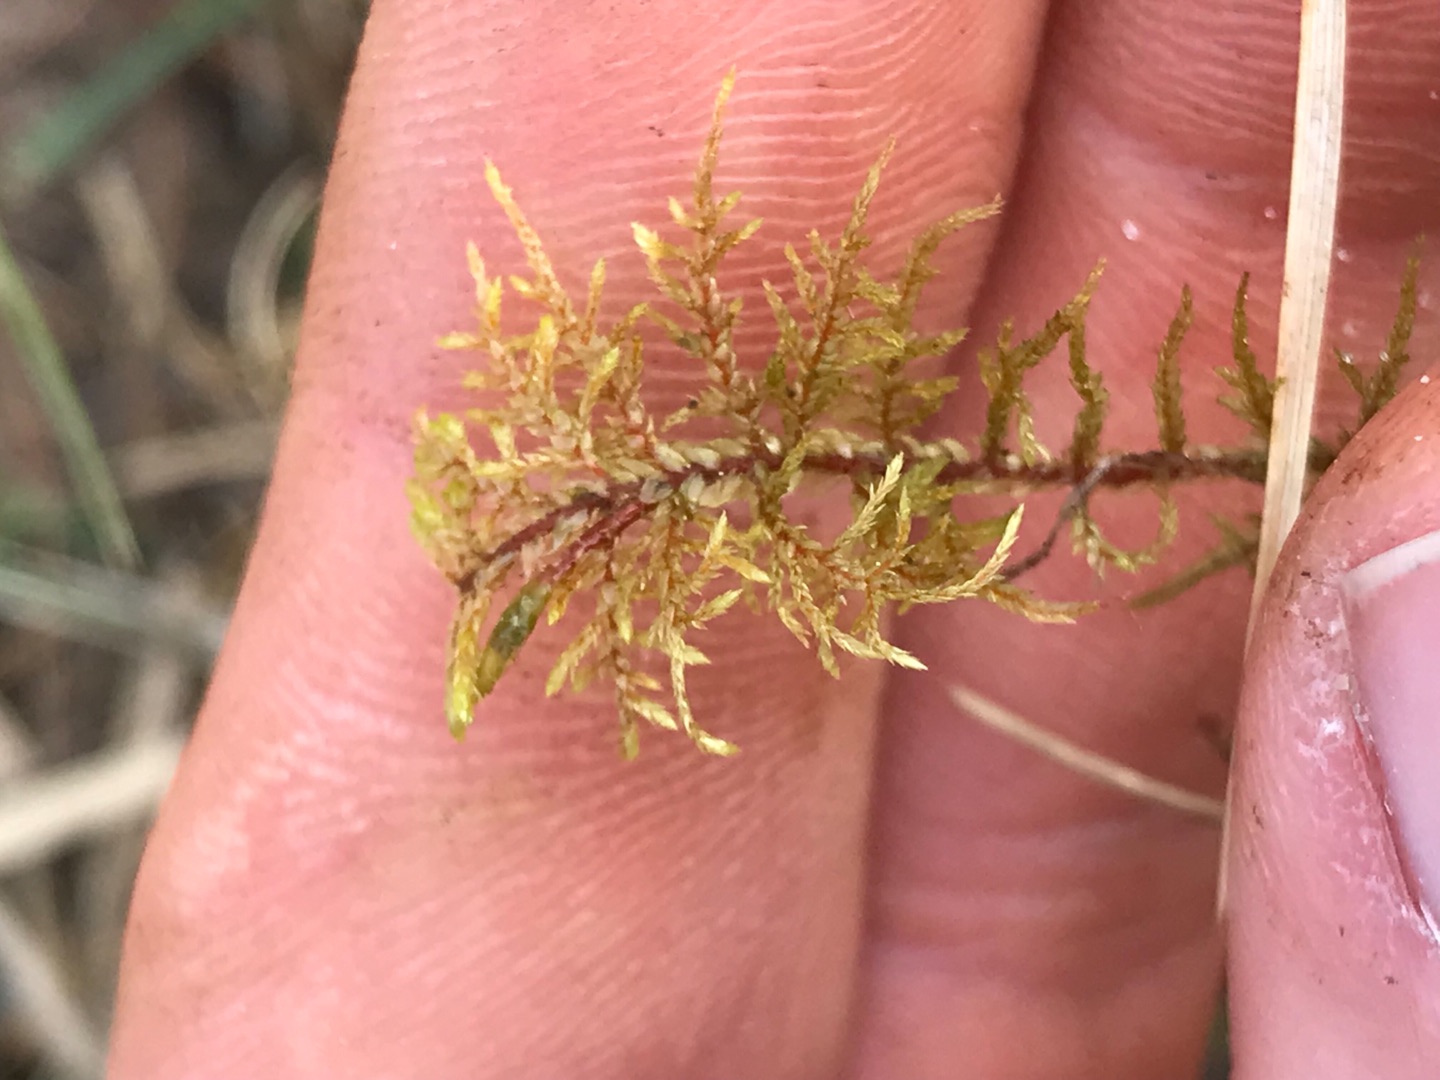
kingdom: Plantae
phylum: Bryophyta
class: Bryopsida
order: Hypnales
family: Hylocomiaceae
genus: Hylocomium
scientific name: Hylocomium splendens
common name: Almindelig etagemos
